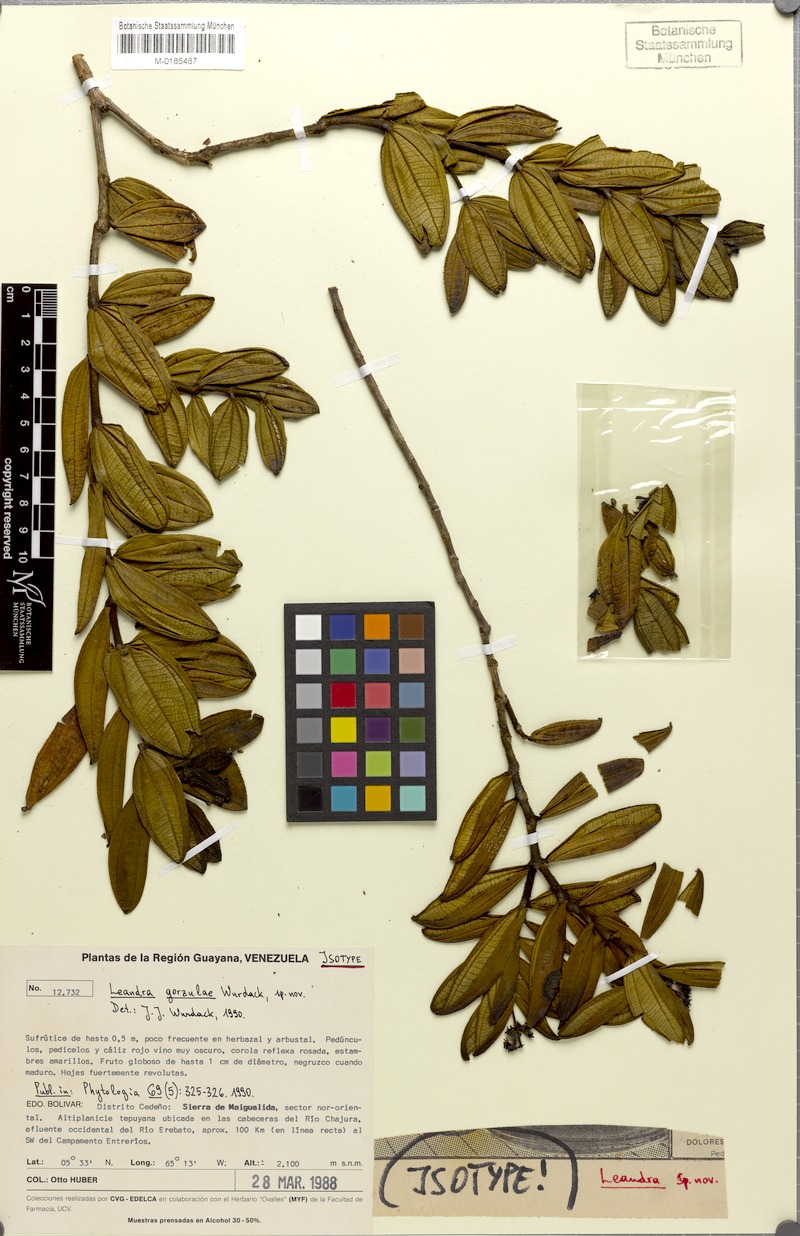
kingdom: Plantae
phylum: Tracheophyta
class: Magnoliopsida
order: Myrtales
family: Melastomataceae
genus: Miconia
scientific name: Miconia gorzulae
